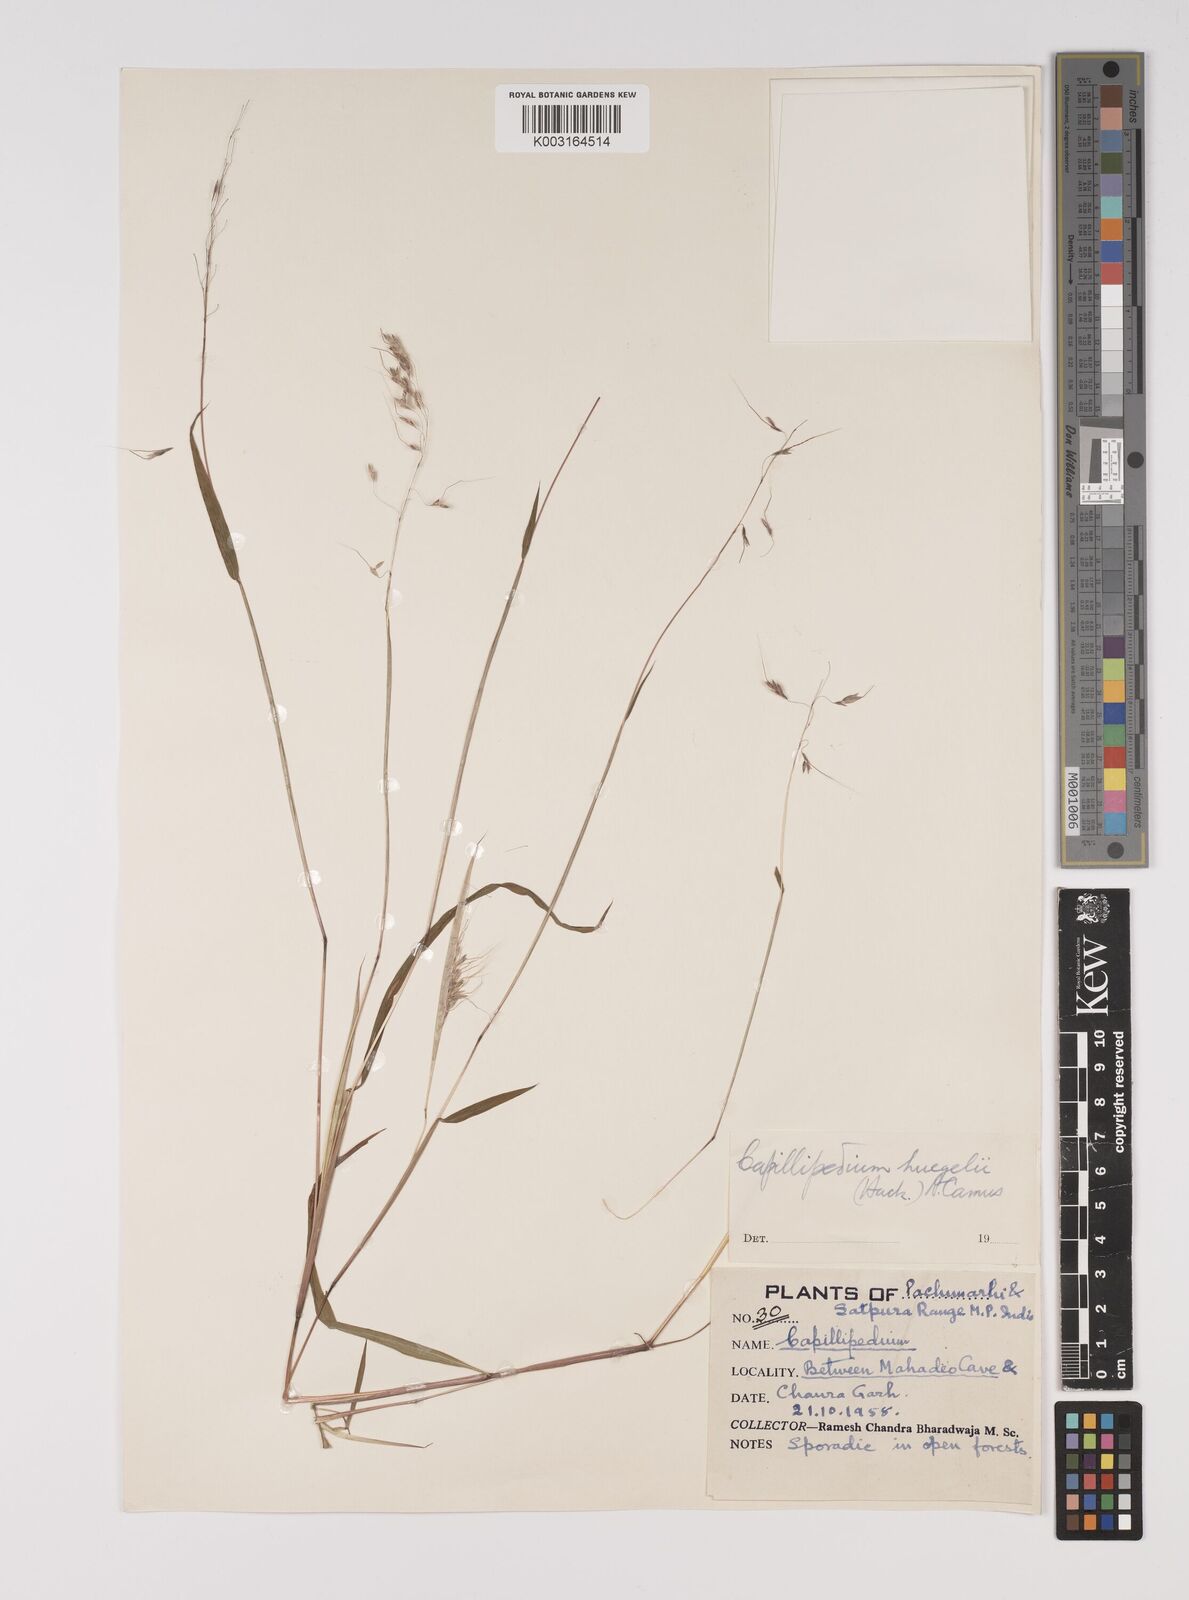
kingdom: Plantae
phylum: Tracheophyta
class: Liliopsida
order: Poales
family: Poaceae
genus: Capillipedium
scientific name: Capillipedium huegelii
